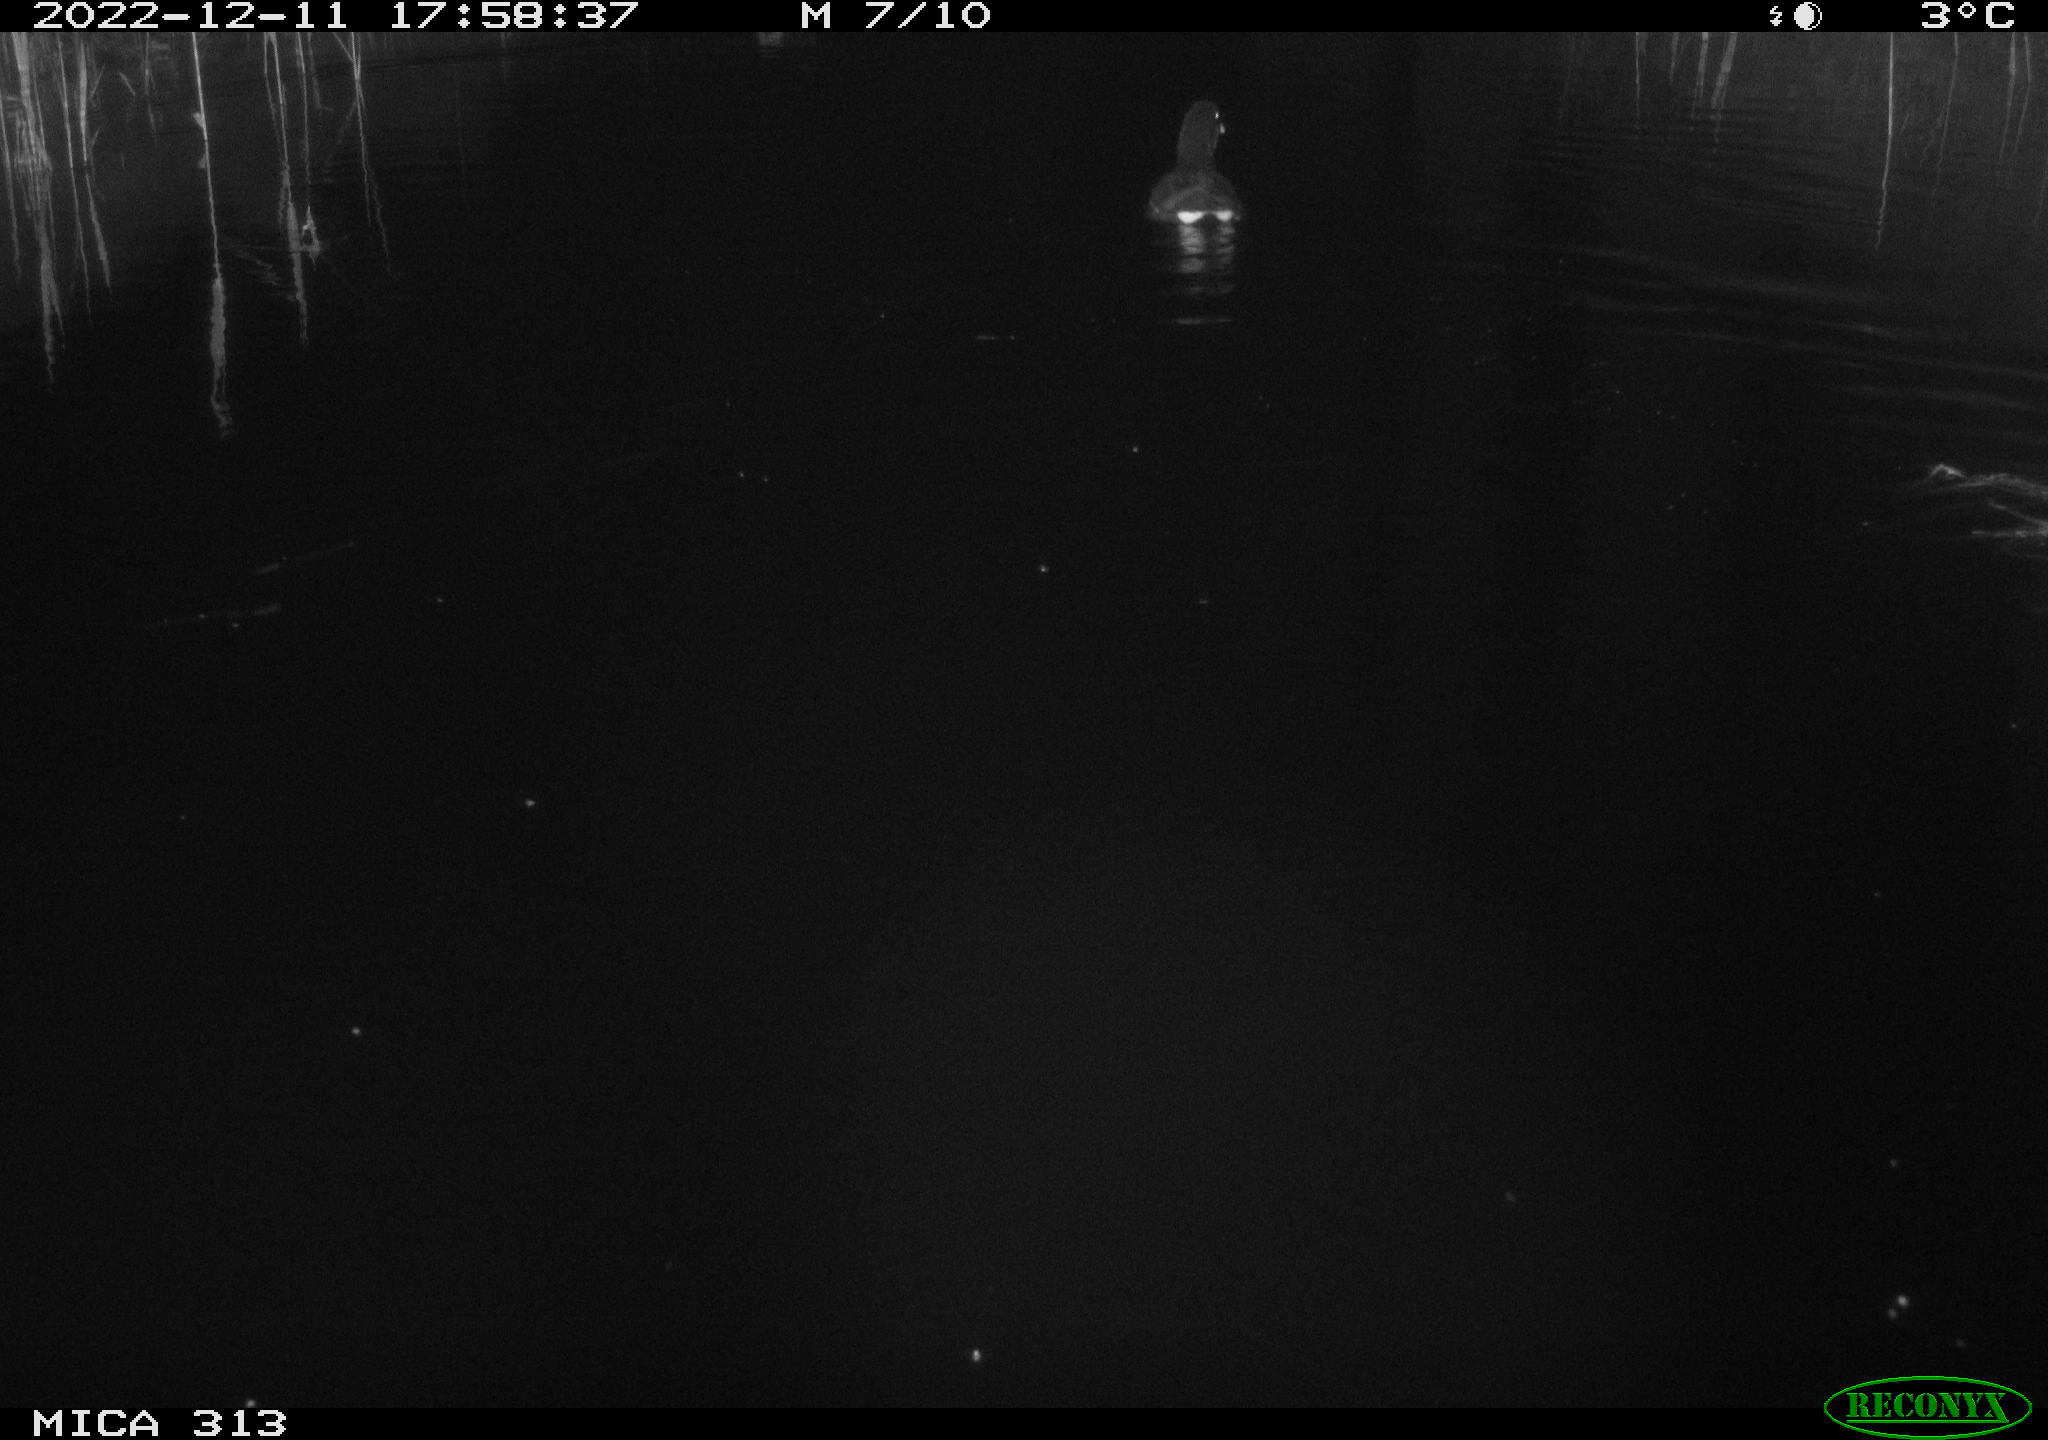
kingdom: Animalia
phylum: Chordata
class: Aves
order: Gruiformes
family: Rallidae
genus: Gallinula
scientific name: Gallinula chloropus
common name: Common moorhen
